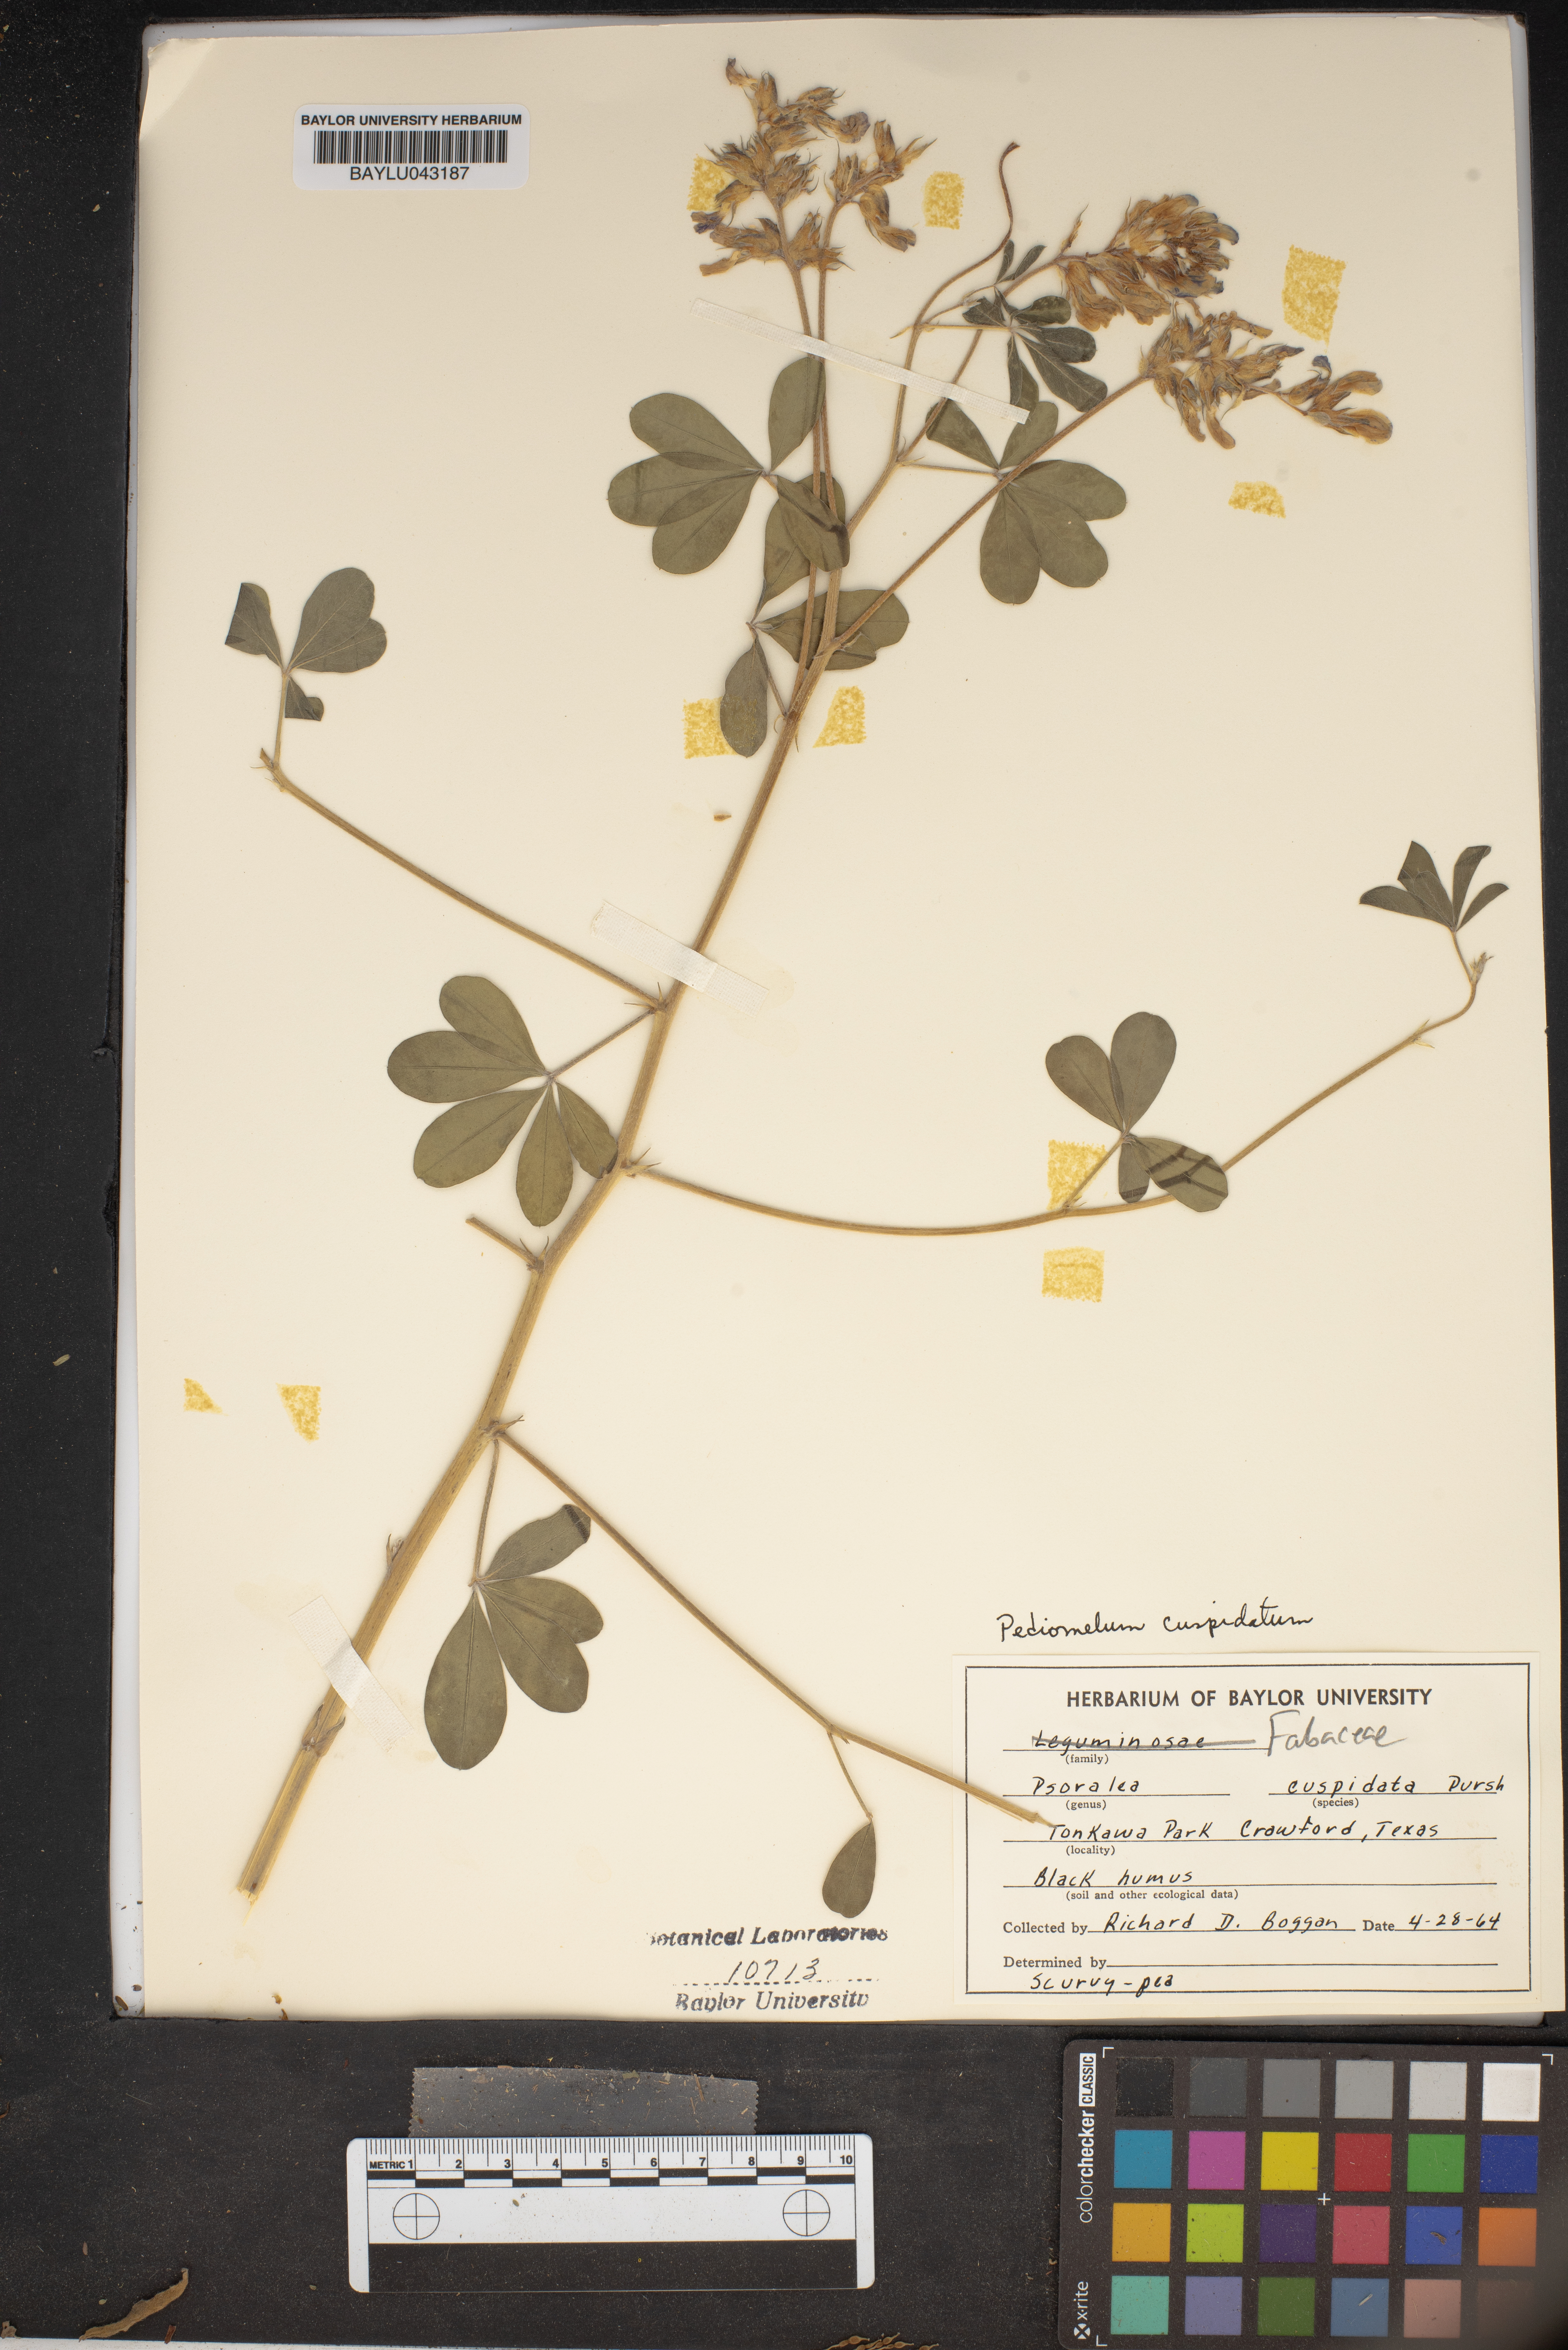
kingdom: Plantae
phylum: Tracheophyta
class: Magnoliopsida
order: Fabales
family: Fabaceae
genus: Pediomelum
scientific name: Pediomelum cuspidatum
